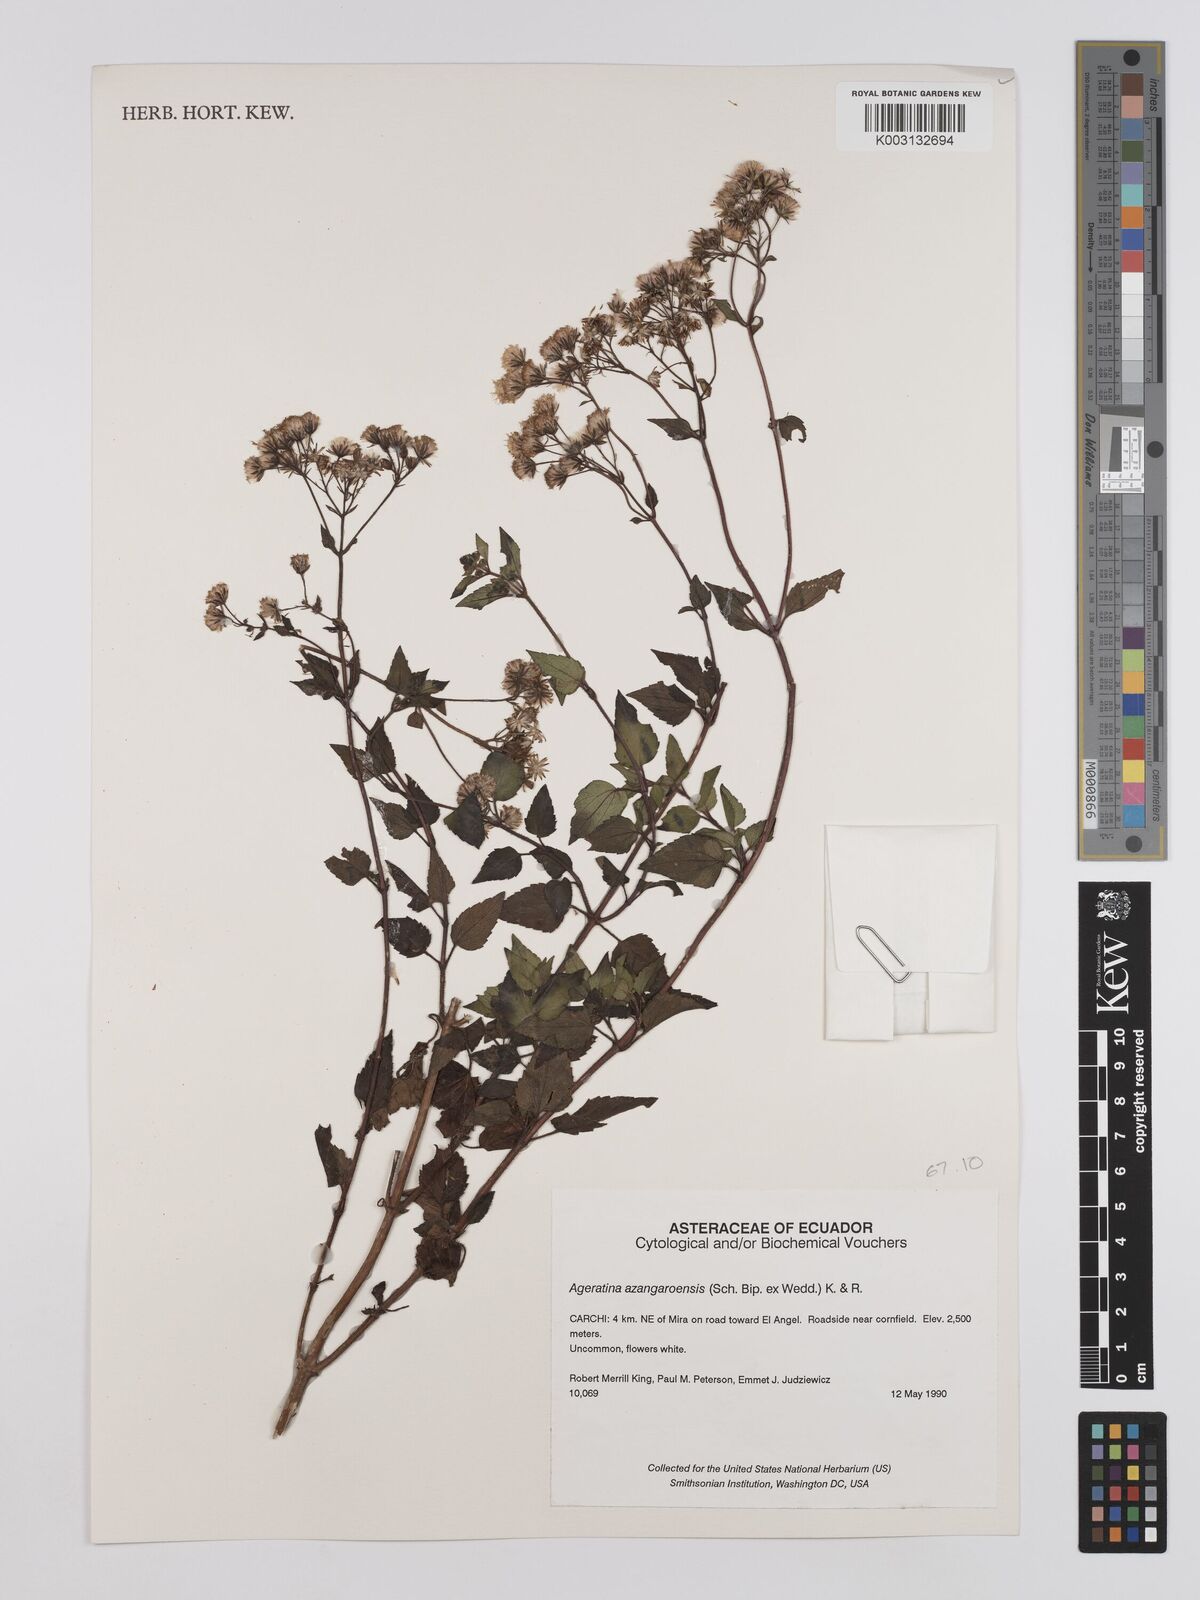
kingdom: Plantae
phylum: Tracheophyta
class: Magnoliopsida
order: Asterales
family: Asteraceae
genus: Ageratina
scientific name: Ageratina glechonophylla
